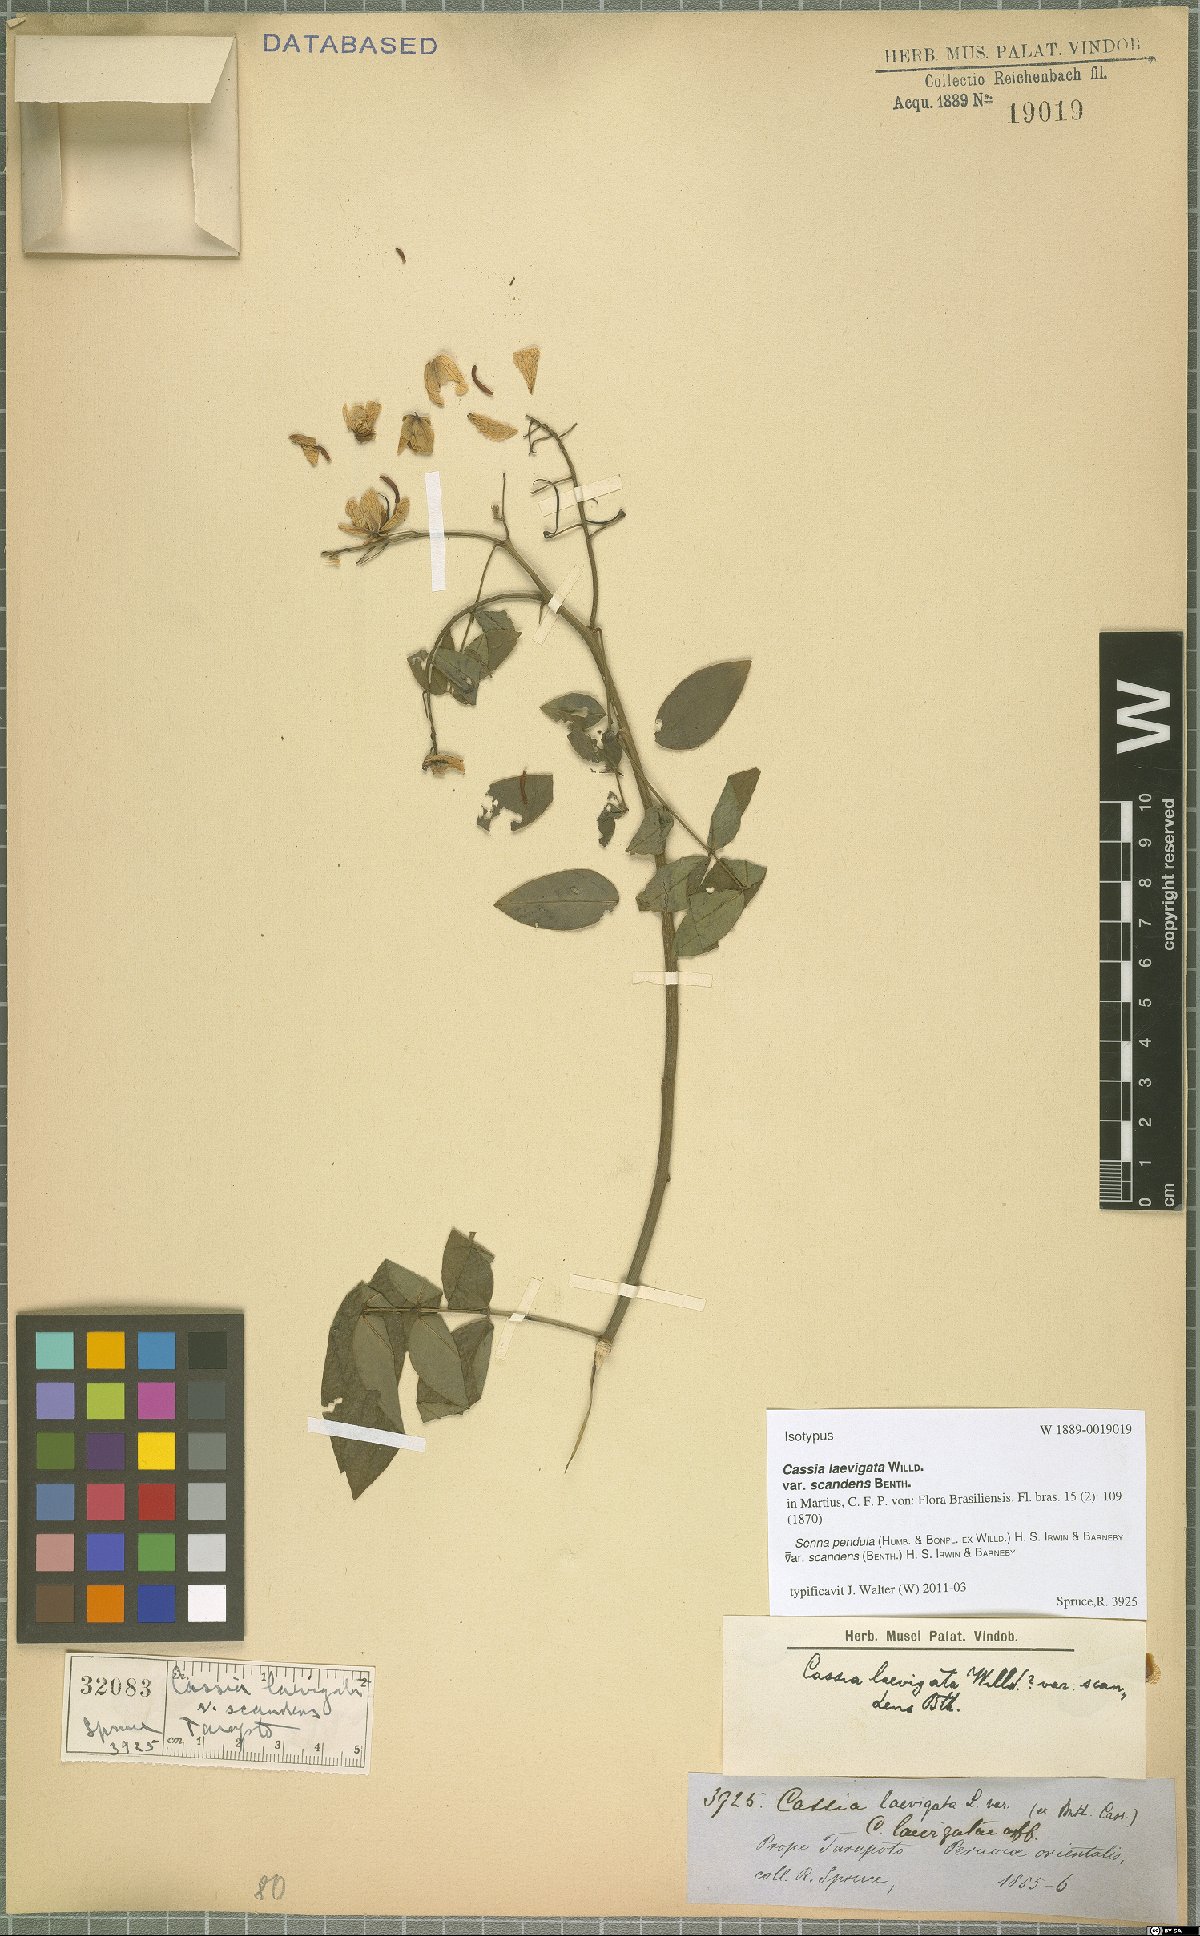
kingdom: Plantae
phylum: Tracheophyta
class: Magnoliopsida
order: Fabales
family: Fabaceae
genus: Senna
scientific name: Senna pendula
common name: Easter cassia
